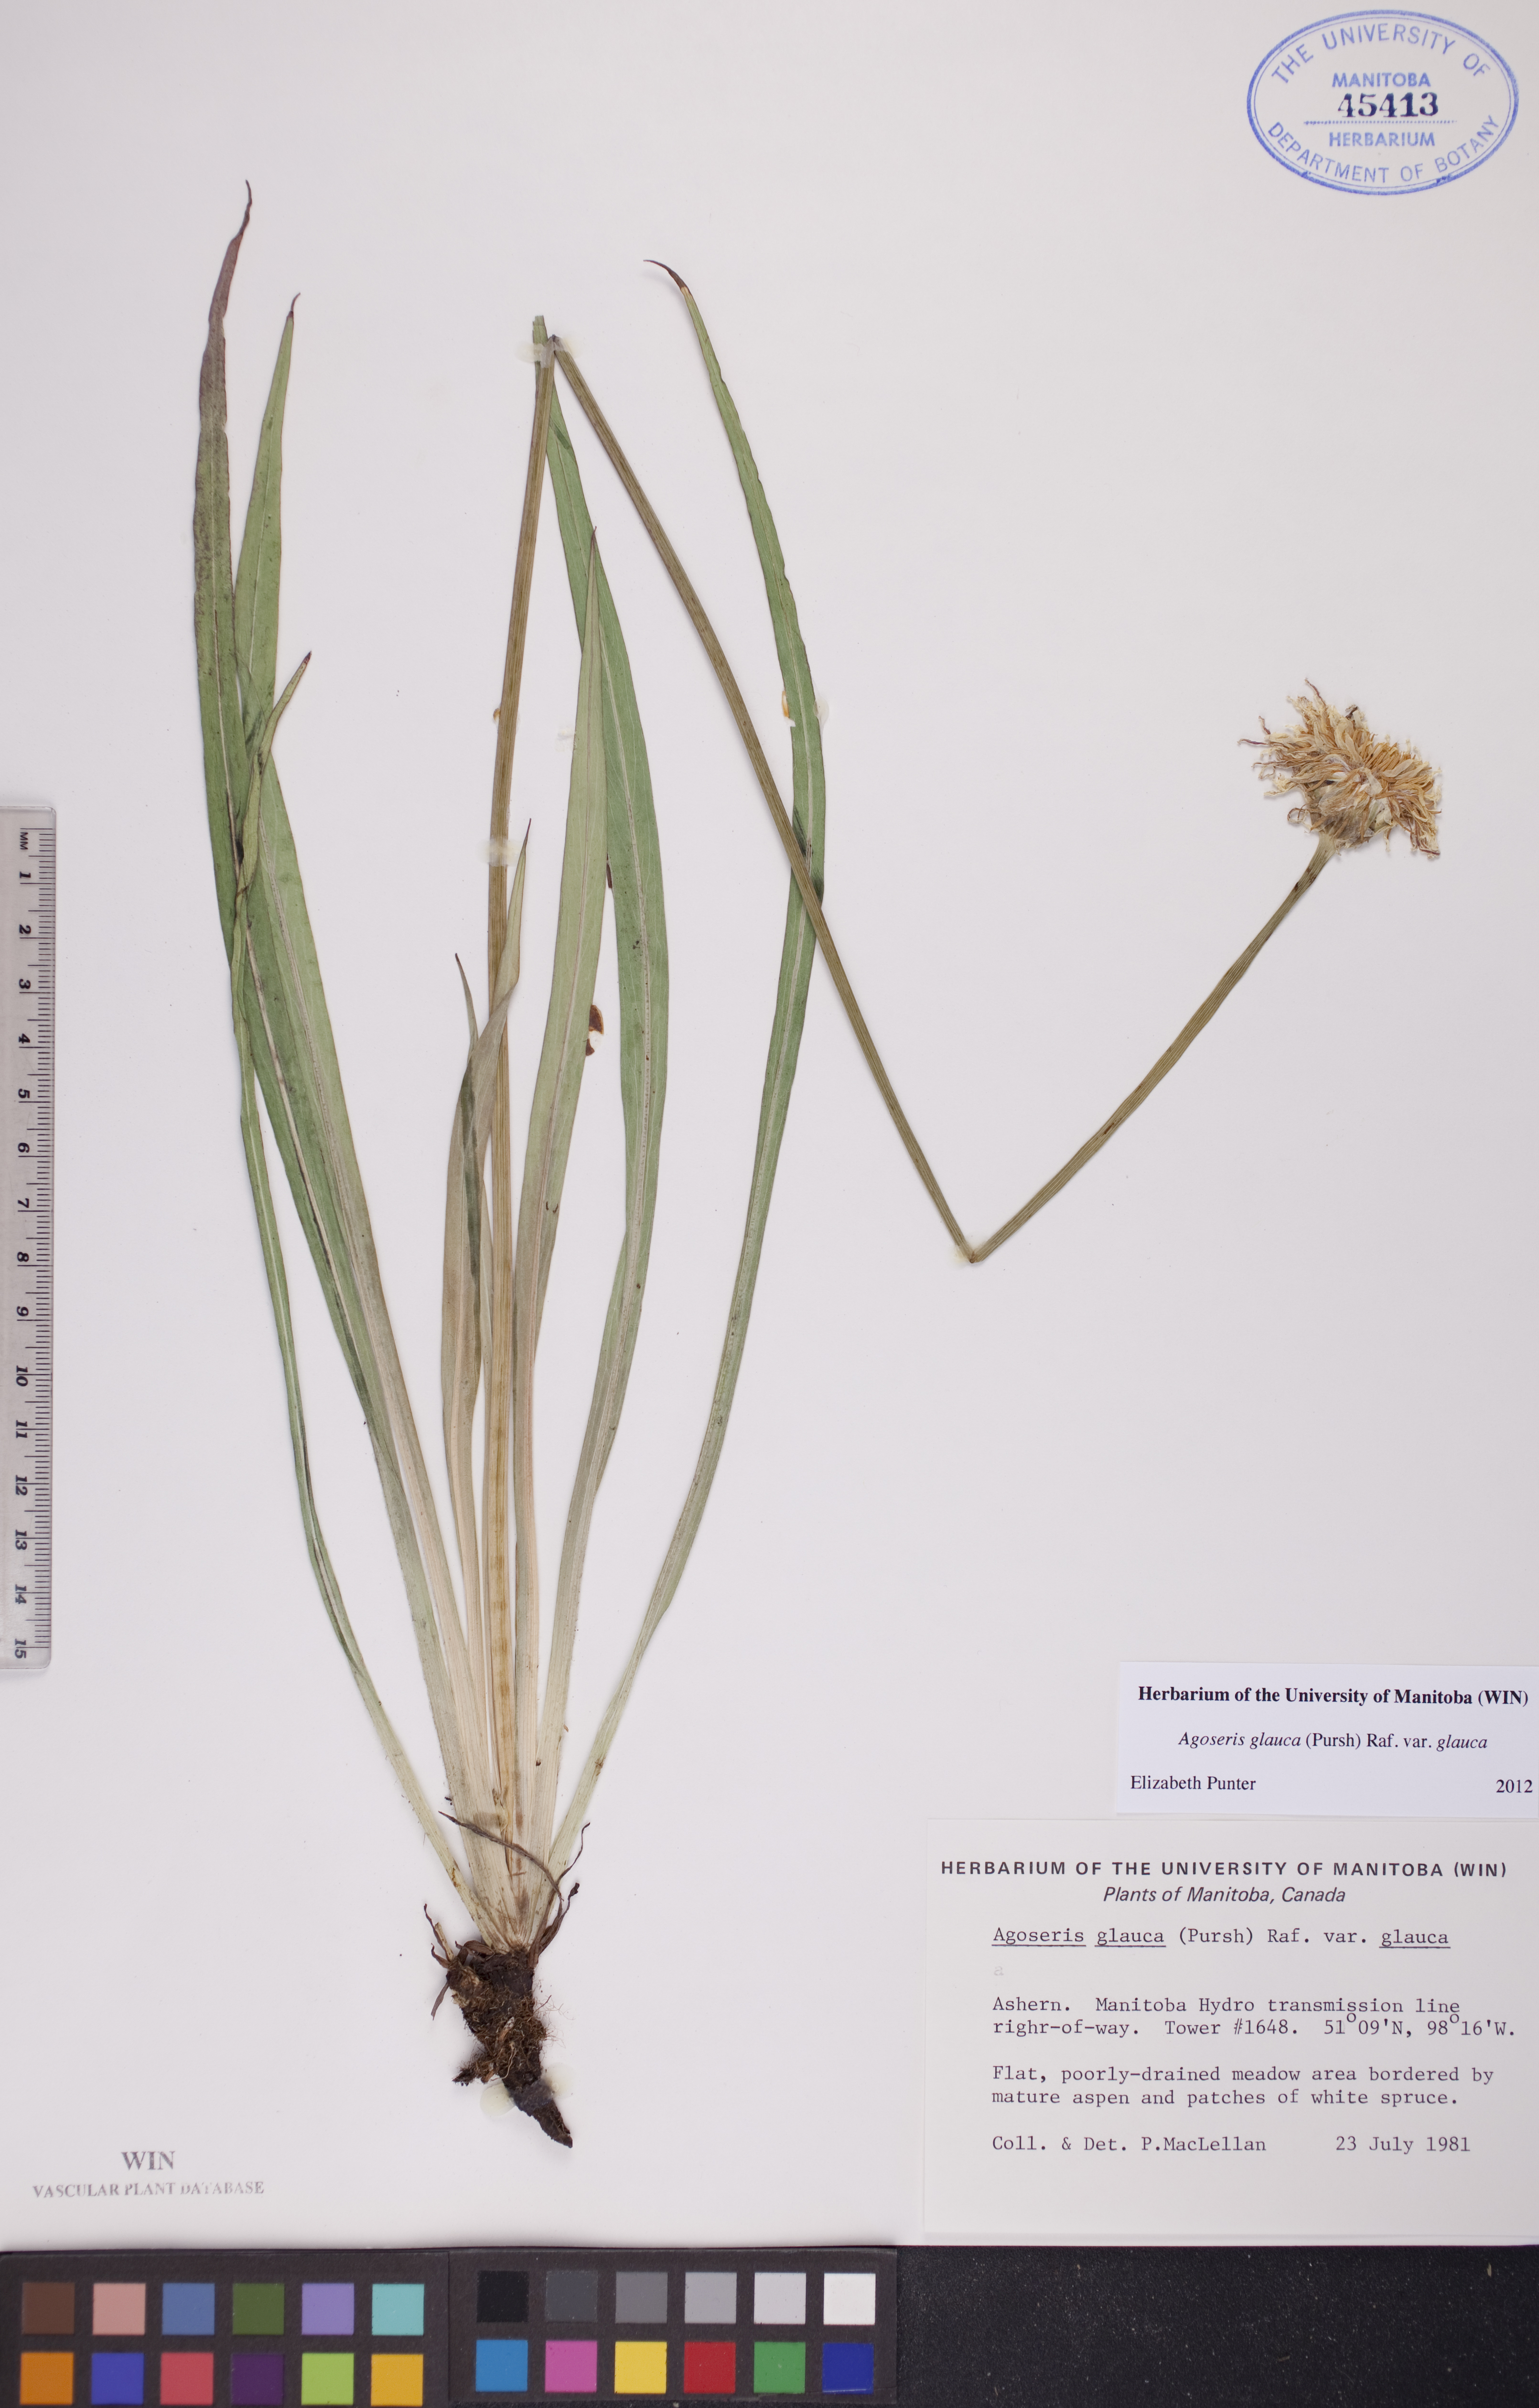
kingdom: Plantae
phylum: Tracheophyta
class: Magnoliopsida
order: Asterales
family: Asteraceae
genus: Agoseris
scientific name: Agoseris glauca
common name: Prairie agoseris
